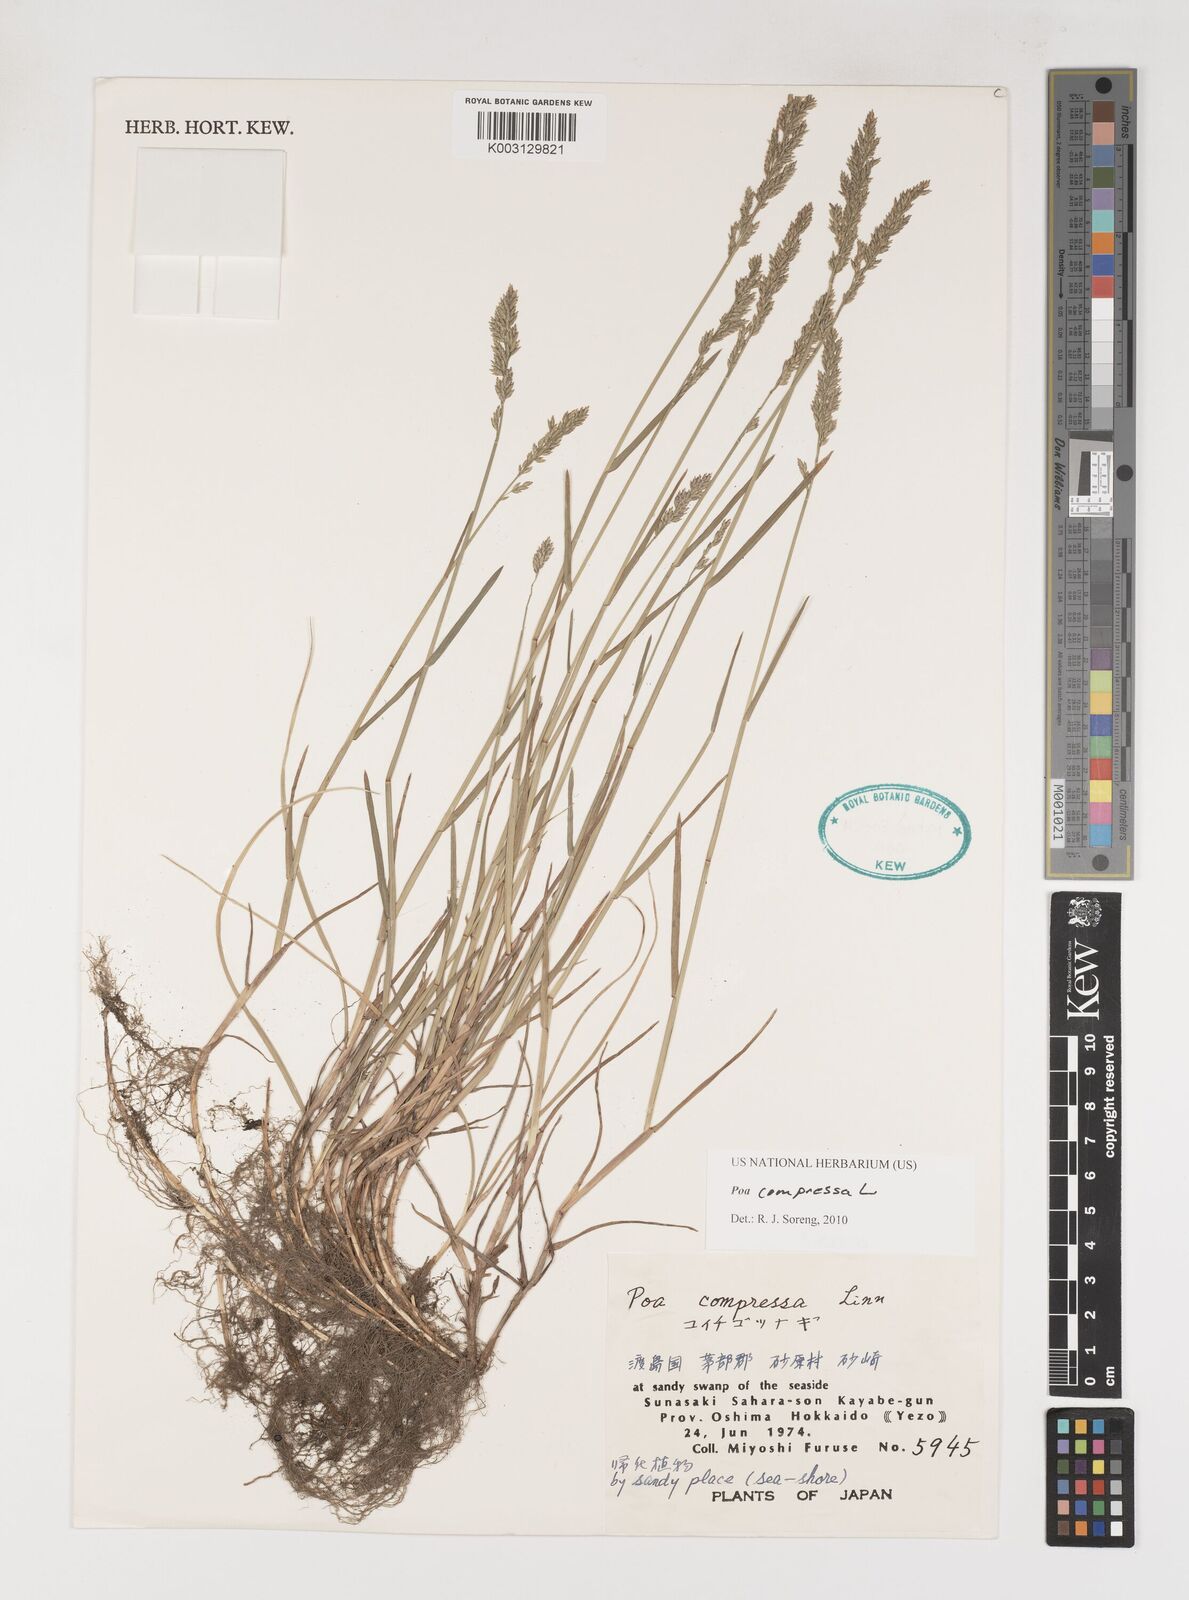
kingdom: Plantae
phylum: Tracheophyta
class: Liliopsida
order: Poales
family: Poaceae
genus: Poa
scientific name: Poa compressa
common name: Canada bluegrass
